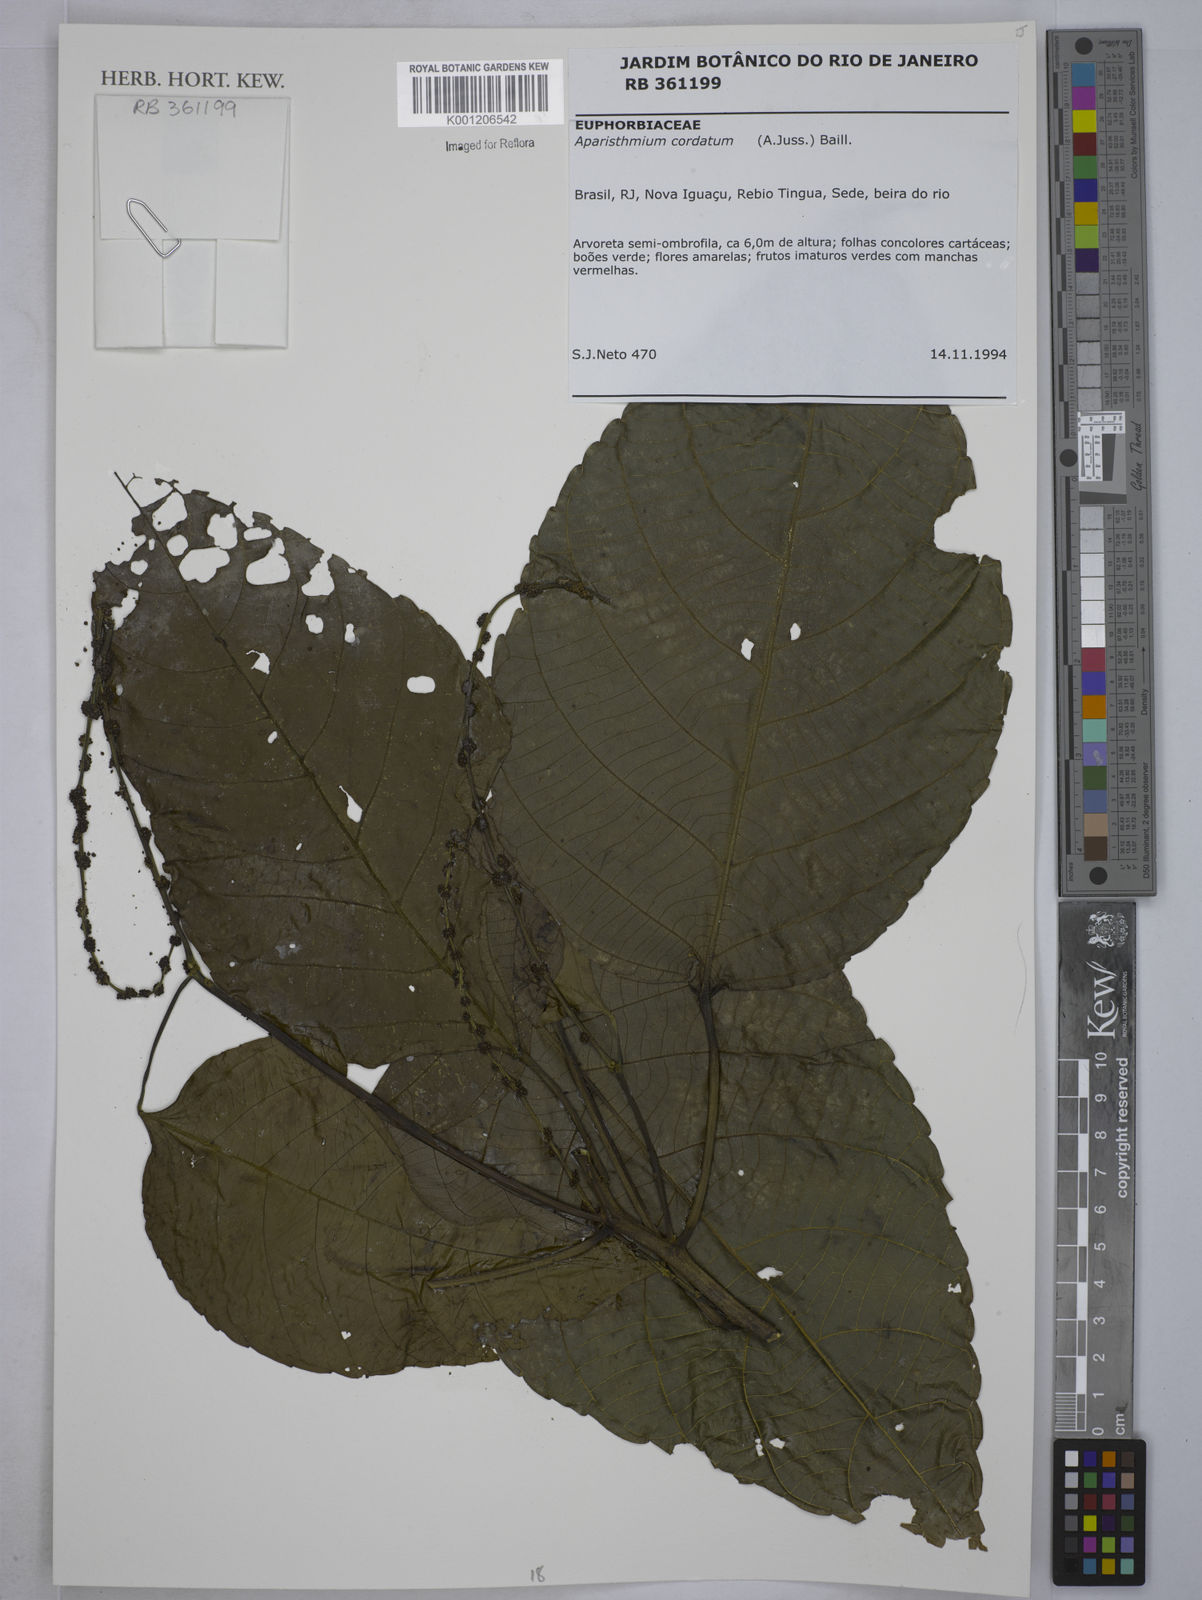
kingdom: Plantae
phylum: Tracheophyta
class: Magnoliopsida
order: Malpighiales
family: Euphorbiaceae
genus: Aparisthmium
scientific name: Aparisthmium cordatum
